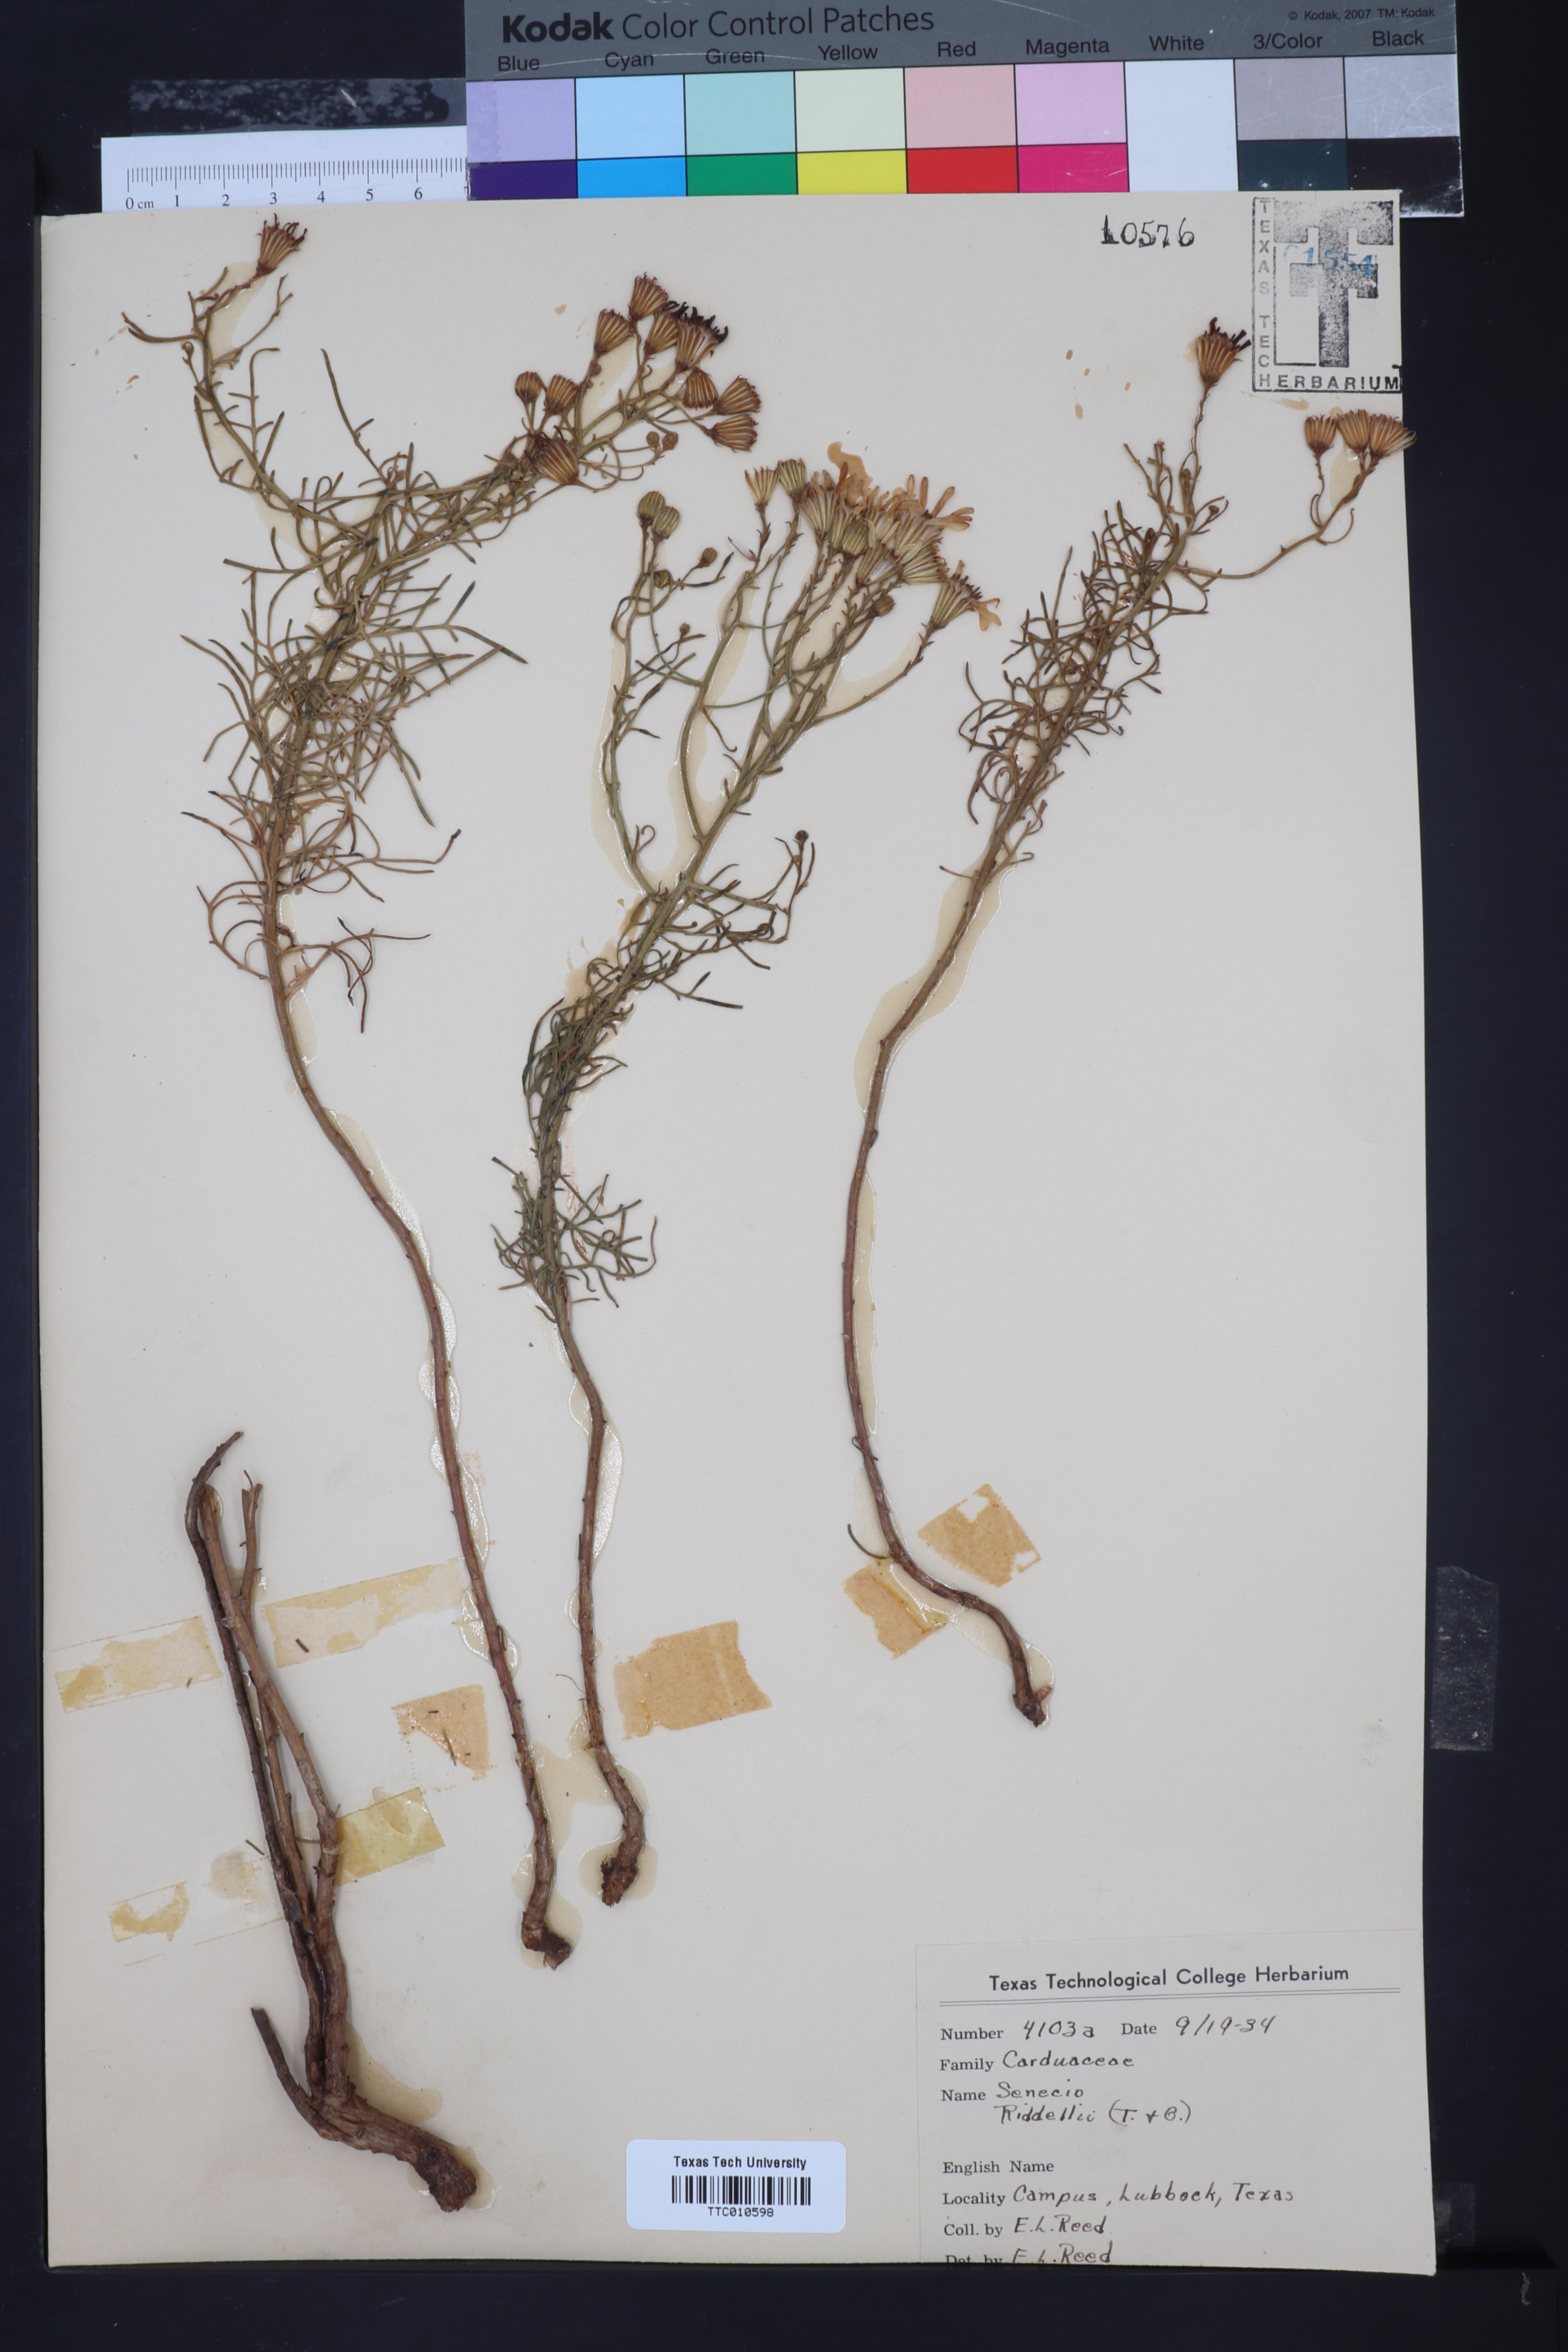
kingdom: Plantae
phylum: Tracheophyta
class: Magnoliopsida
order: Asterales
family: Asteraceae
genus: Senecio
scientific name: Senecio riddellii
